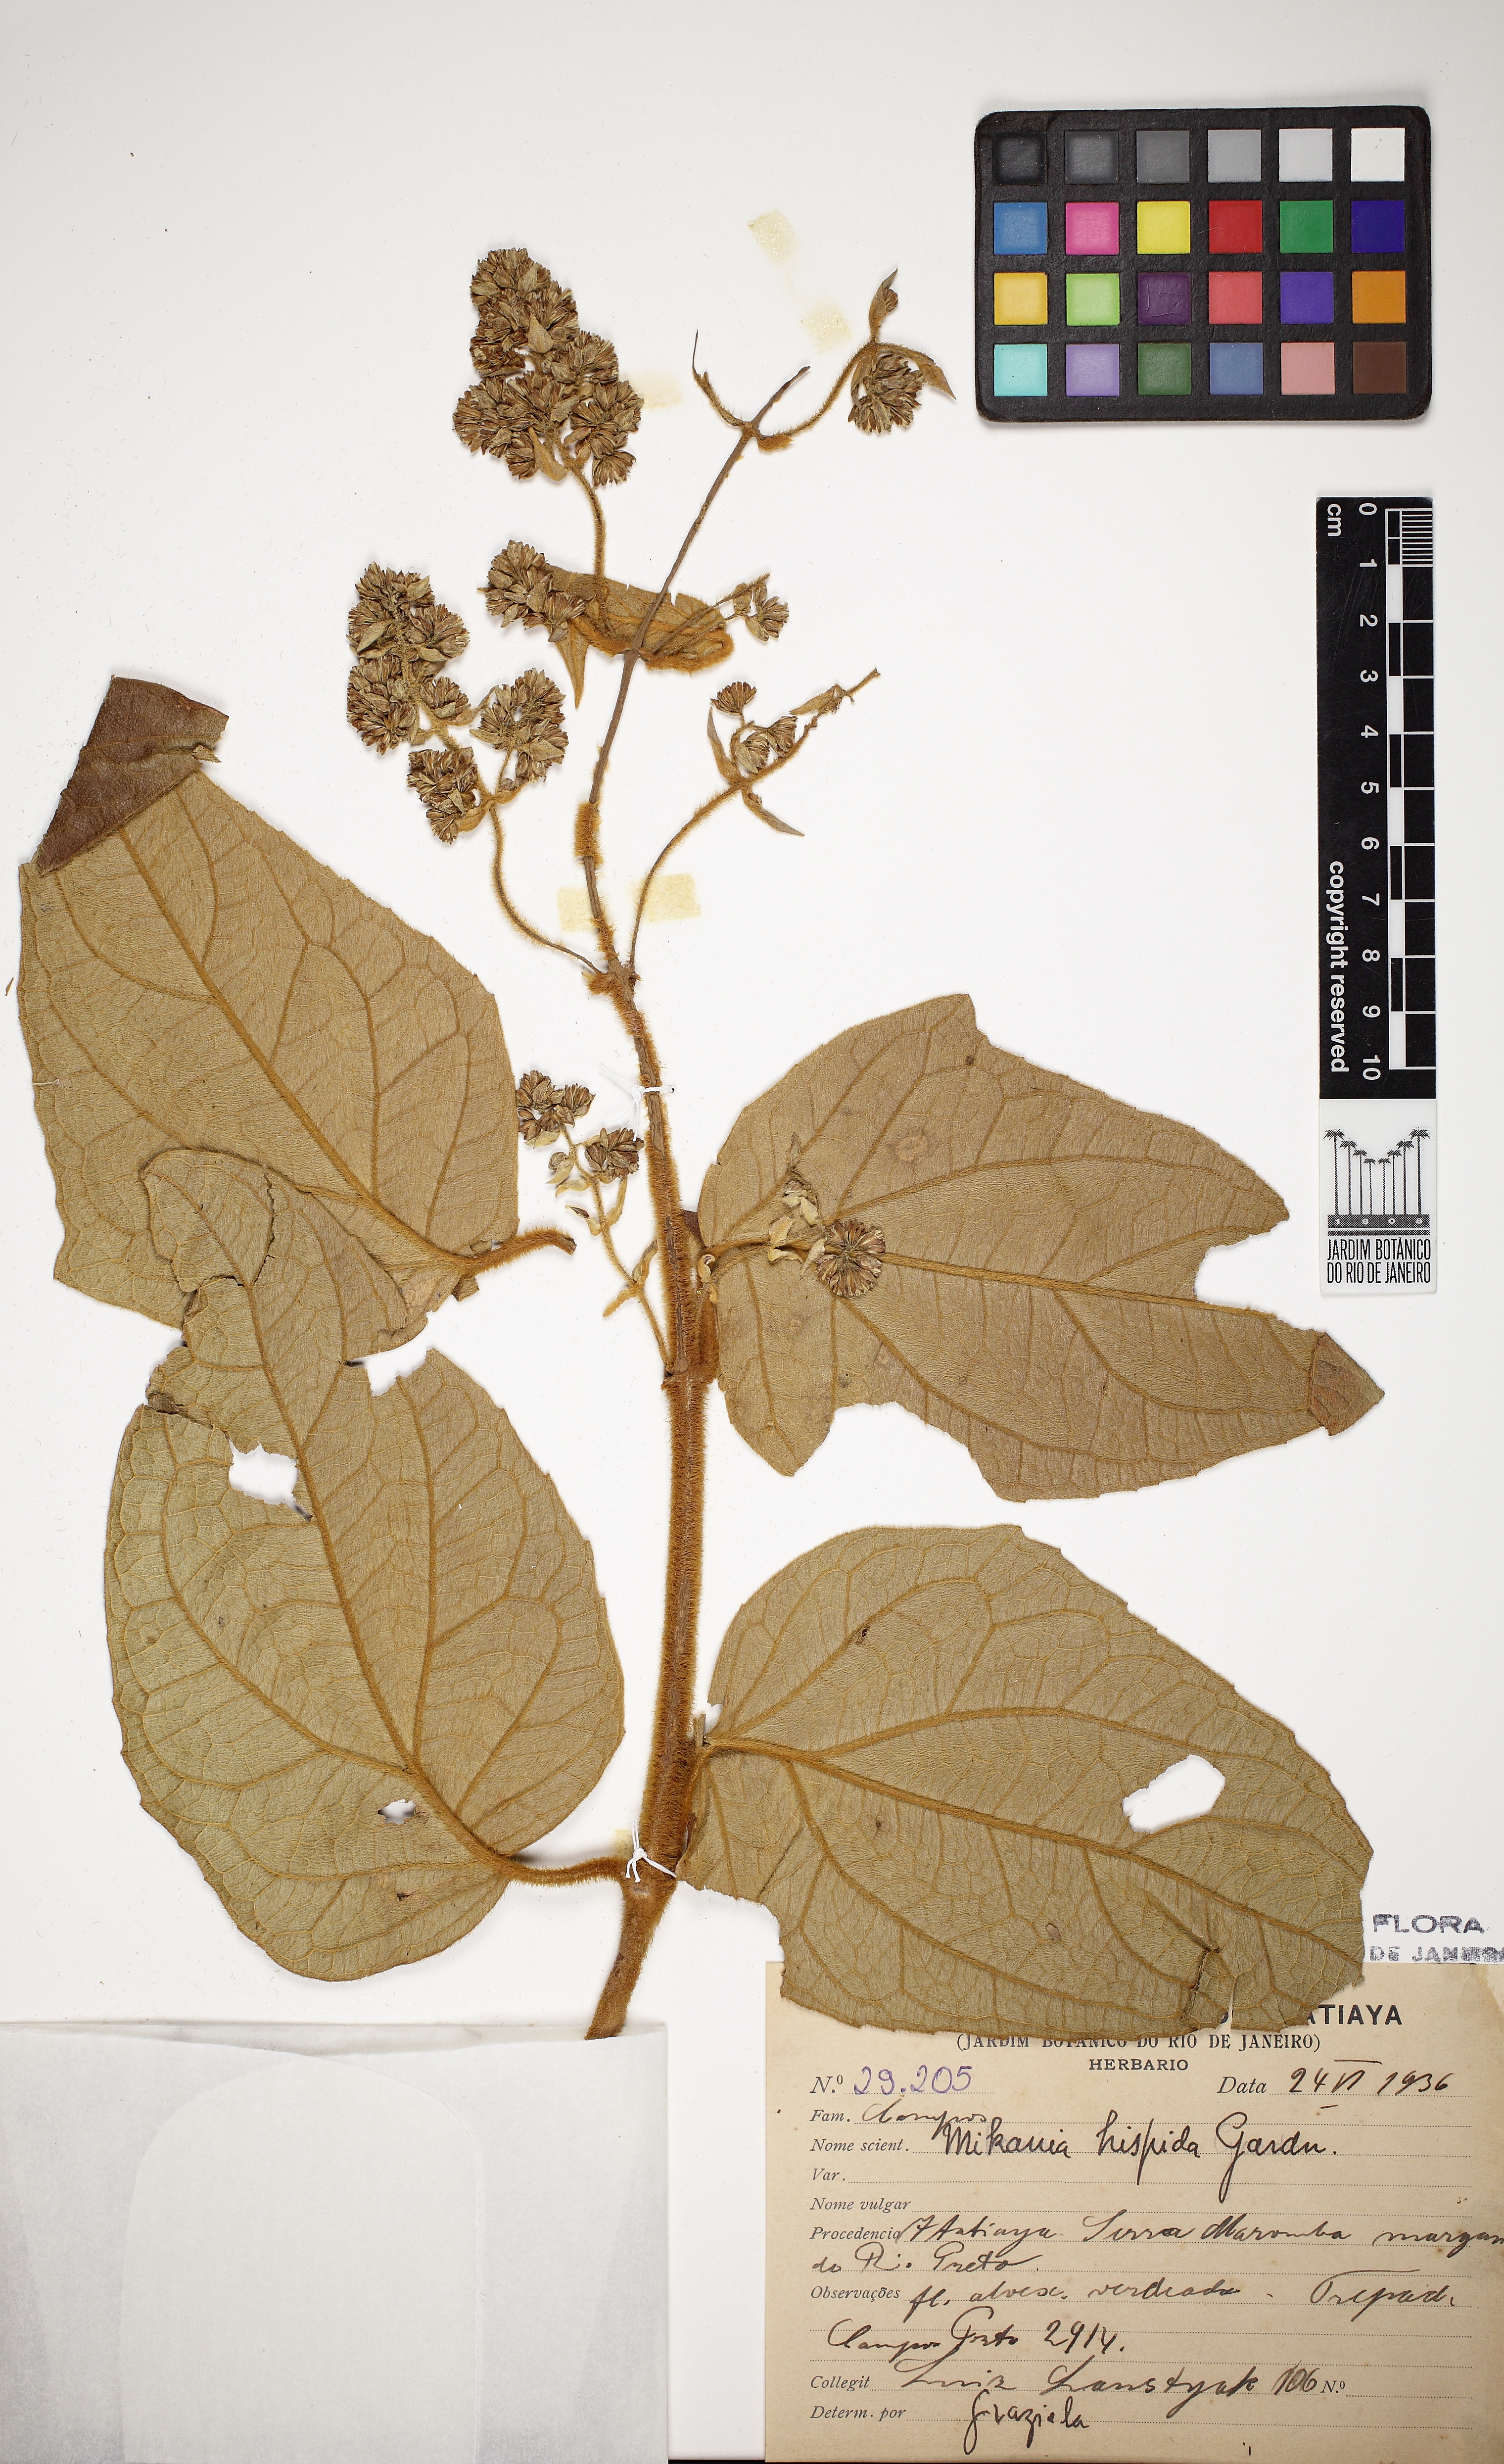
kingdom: Plantae
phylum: Tracheophyta
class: Magnoliopsida
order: Asterales
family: Asteraceae
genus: Mikania
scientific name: Mikania conferta
